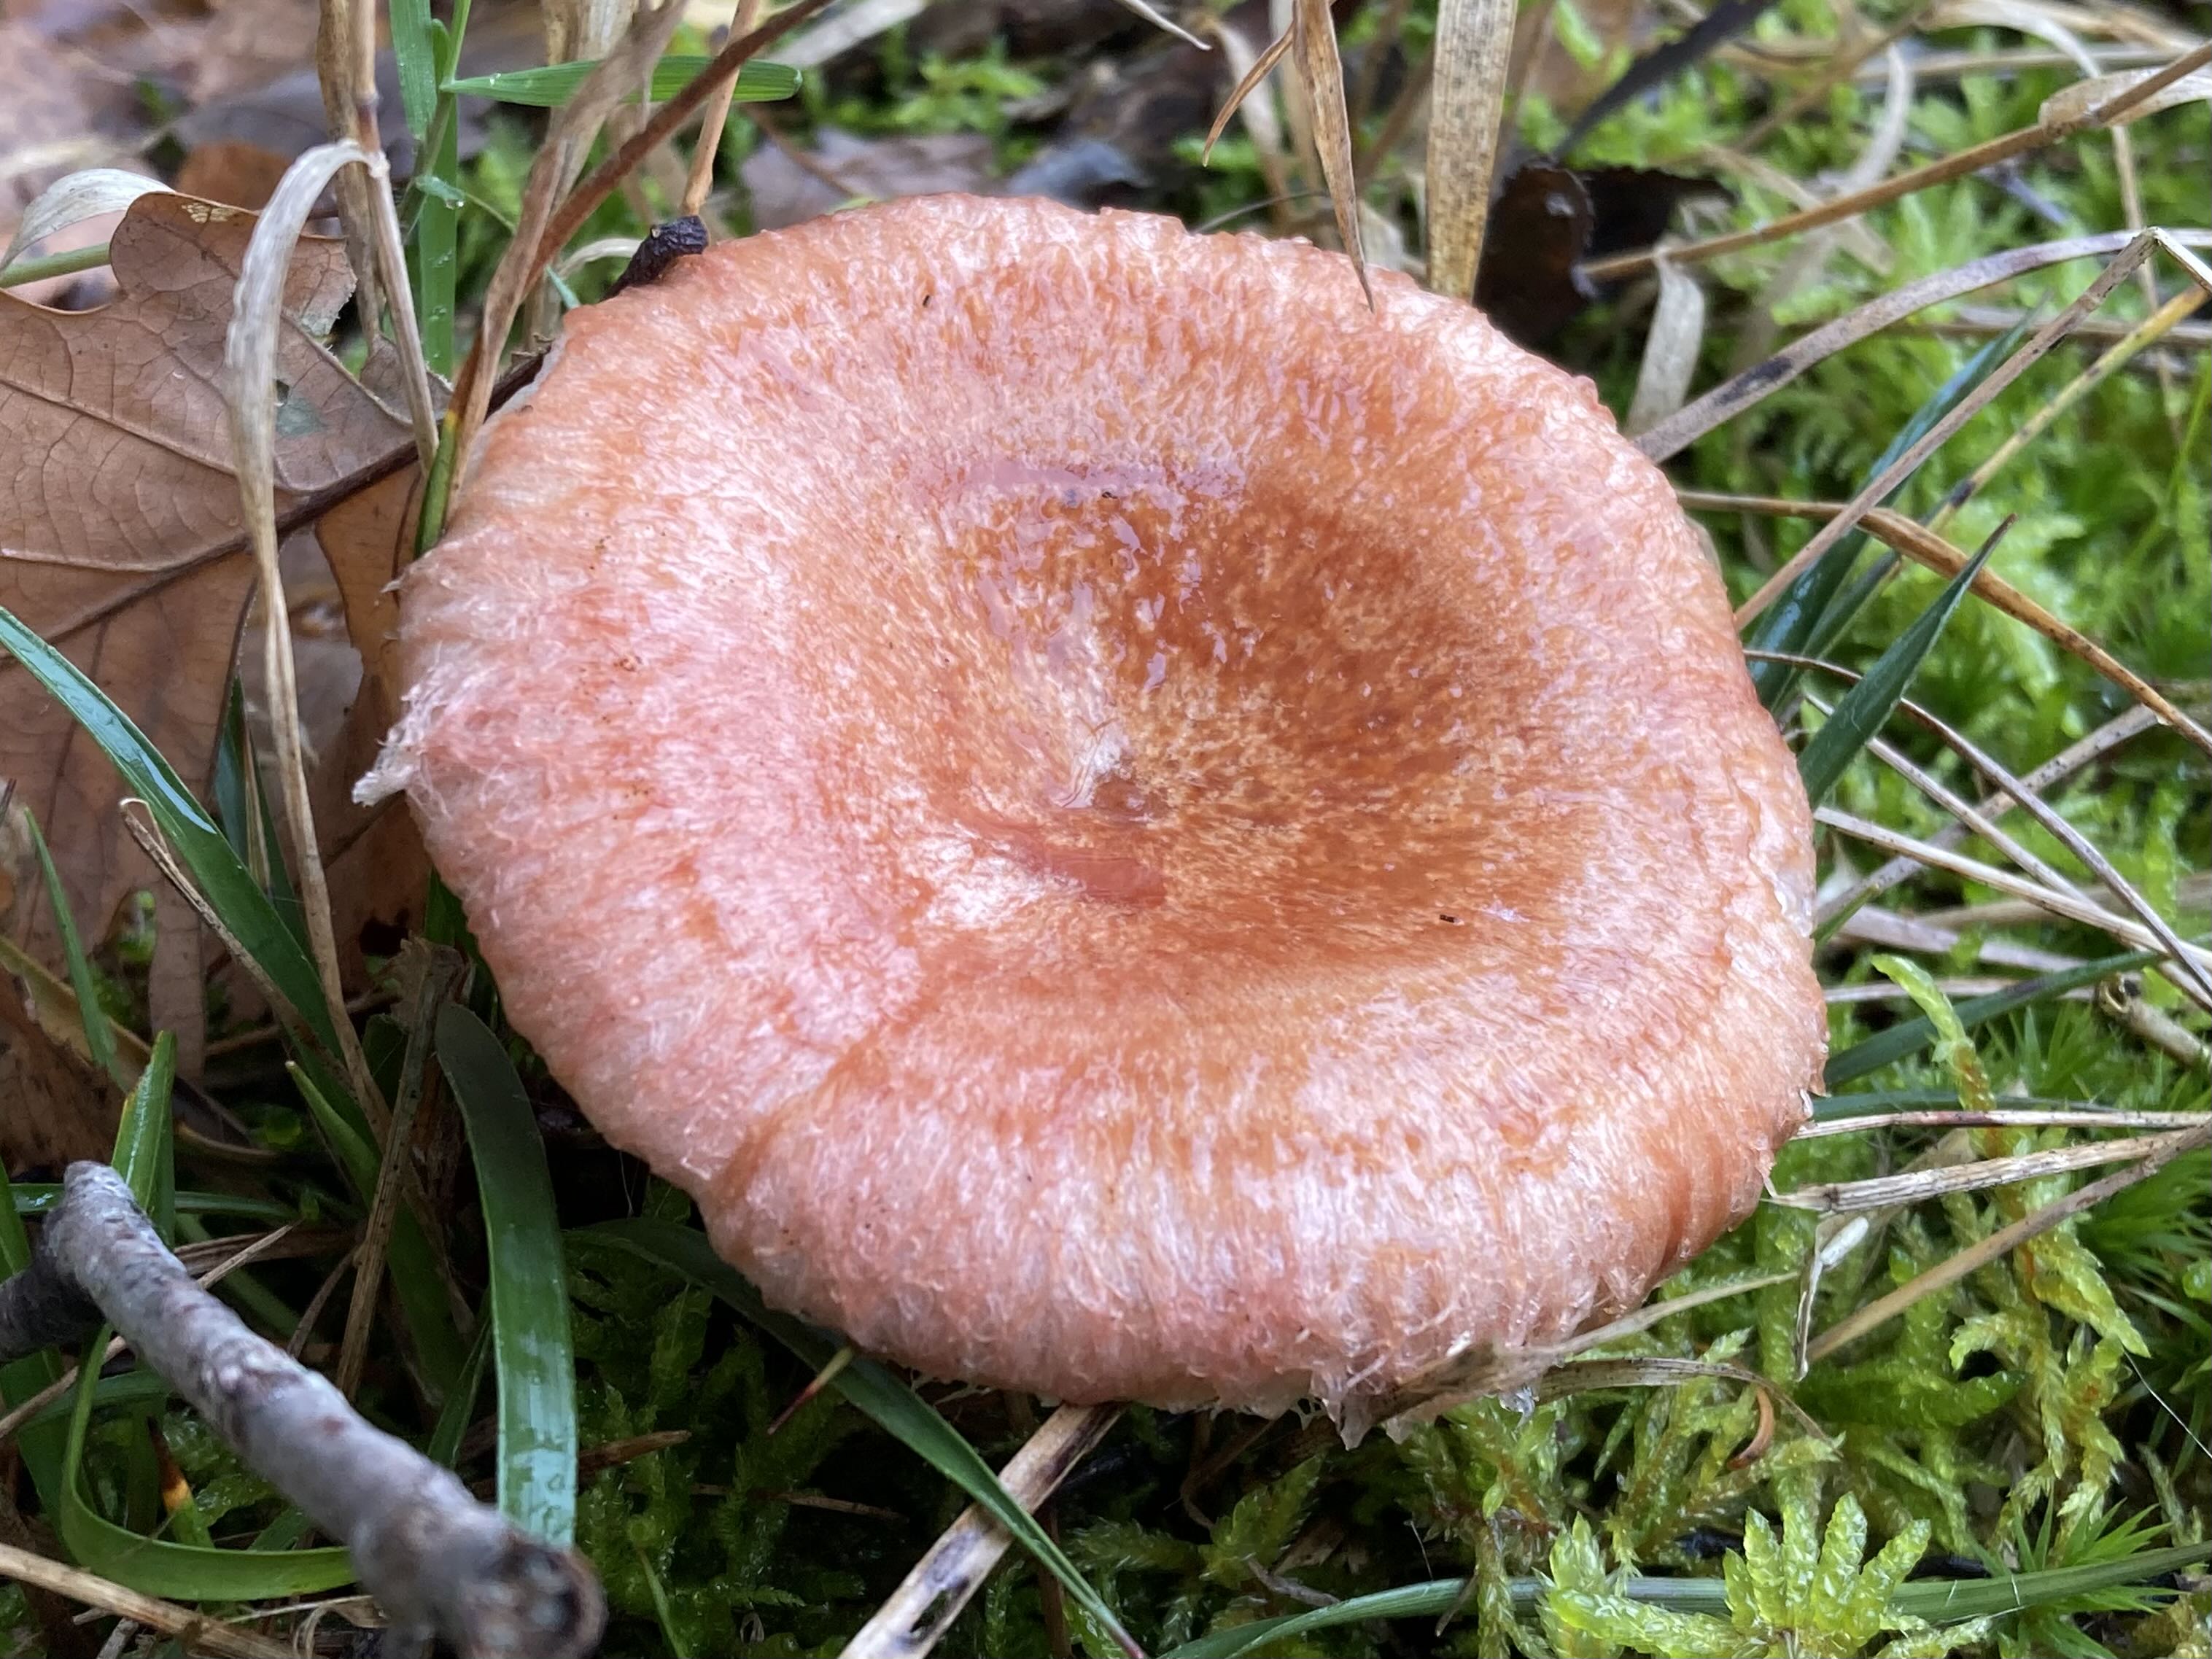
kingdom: Fungi
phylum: Basidiomycota
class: Agaricomycetes
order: Russulales
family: Russulaceae
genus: Lactarius
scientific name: Lactarius torminosus
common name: skægget mælkehat
